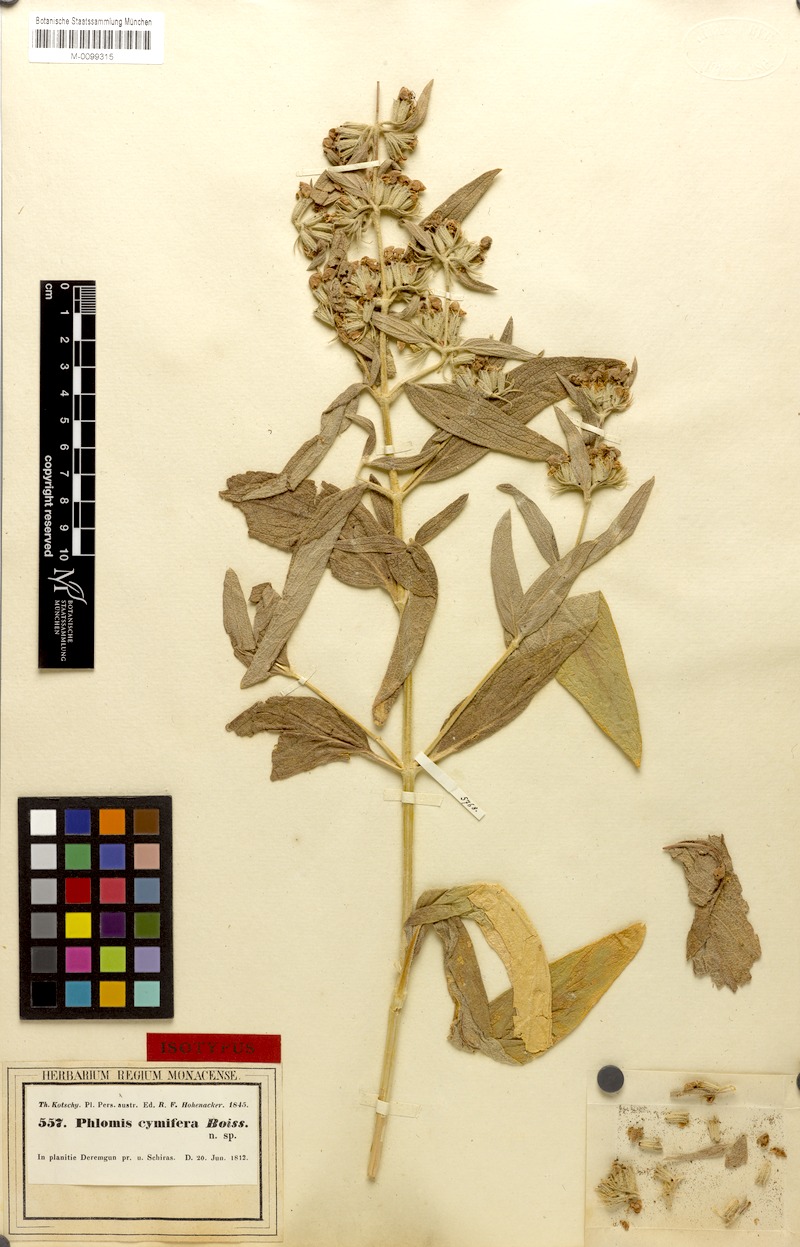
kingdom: Plantae
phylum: Tracheophyta
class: Magnoliopsida
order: Lamiales
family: Lamiaceae
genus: Phlomis
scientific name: Phlomis persica
